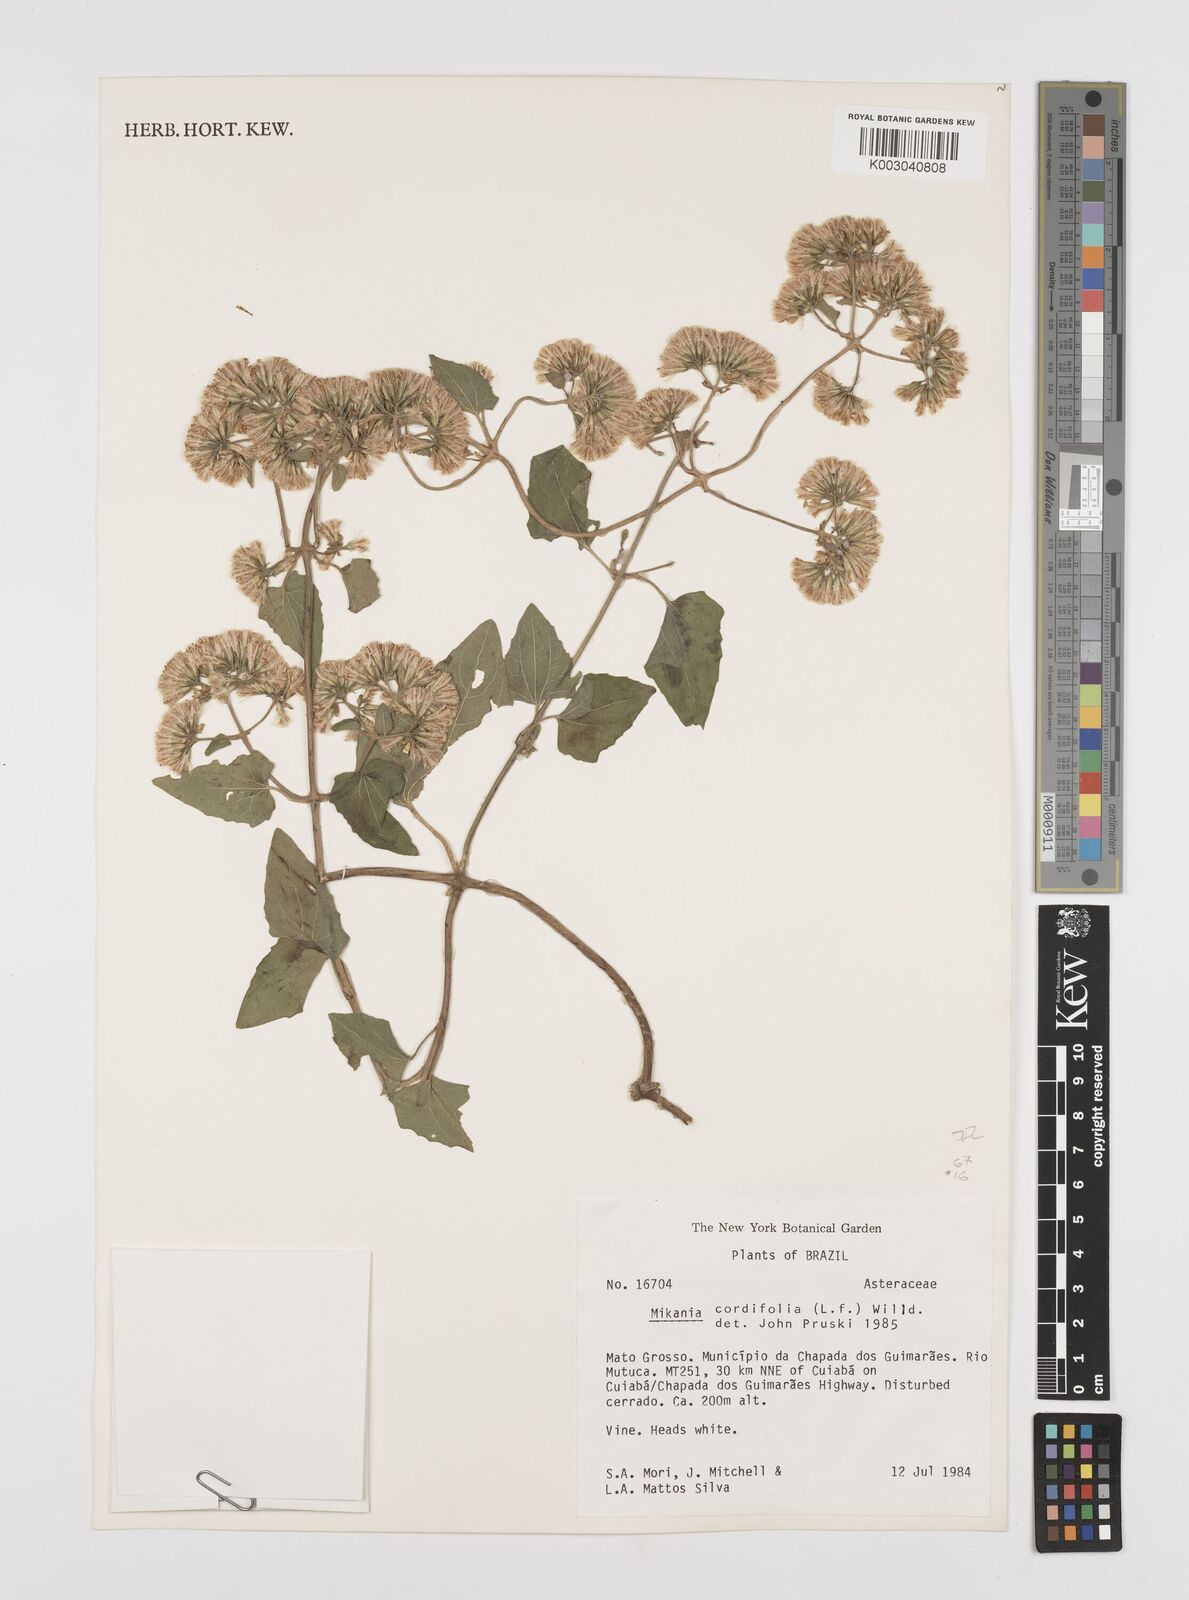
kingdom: Plantae
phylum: Tracheophyta
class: Magnoliopsida
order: Asterales
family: Asteraceae
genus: Mikania
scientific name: Mikania cordifolia
